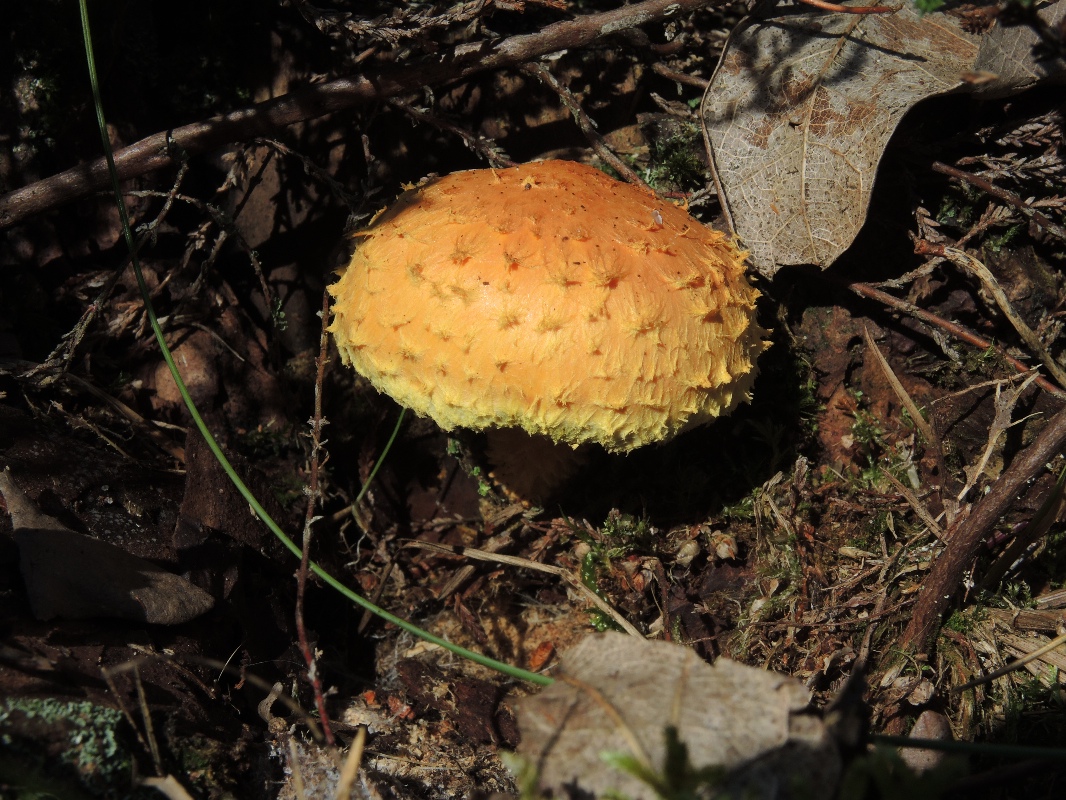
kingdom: Fungi
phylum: Basidiomycota
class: Agaricomycetes
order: Agaricales
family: Strophariaceae
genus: Pholiota
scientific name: Pholiota flammans
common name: flamme-skælhat
